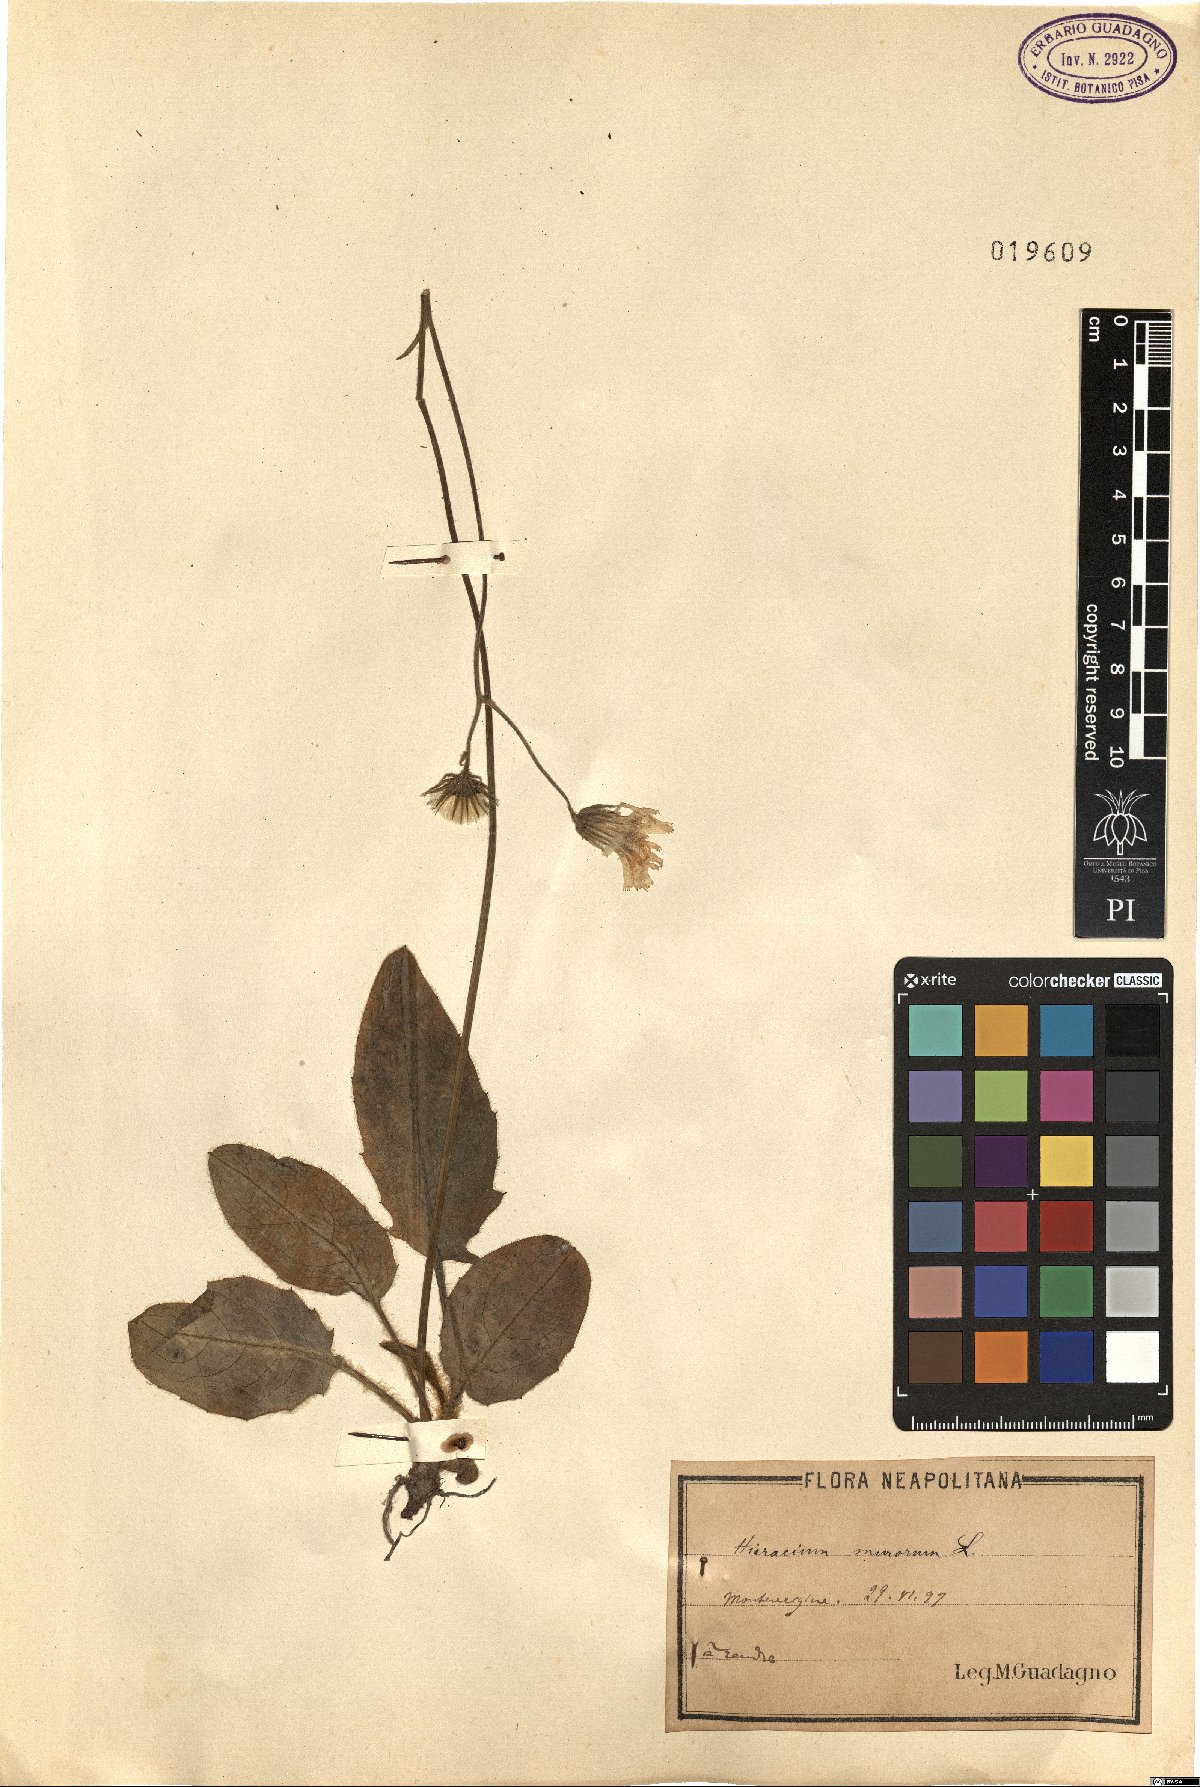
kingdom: Plantae
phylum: Tracheophyta
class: Magnoliopsida
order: Asterales
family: Asteraceae
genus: Hieracium
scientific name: Hieracium murorum
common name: Wall hawkweed
